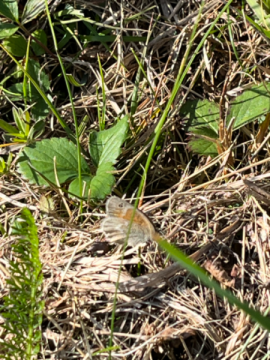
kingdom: Animalia
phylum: Arthropoda
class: Insecta
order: Lepidoptera
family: Nymphalidae
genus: Coenonympha
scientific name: Coenonympha
